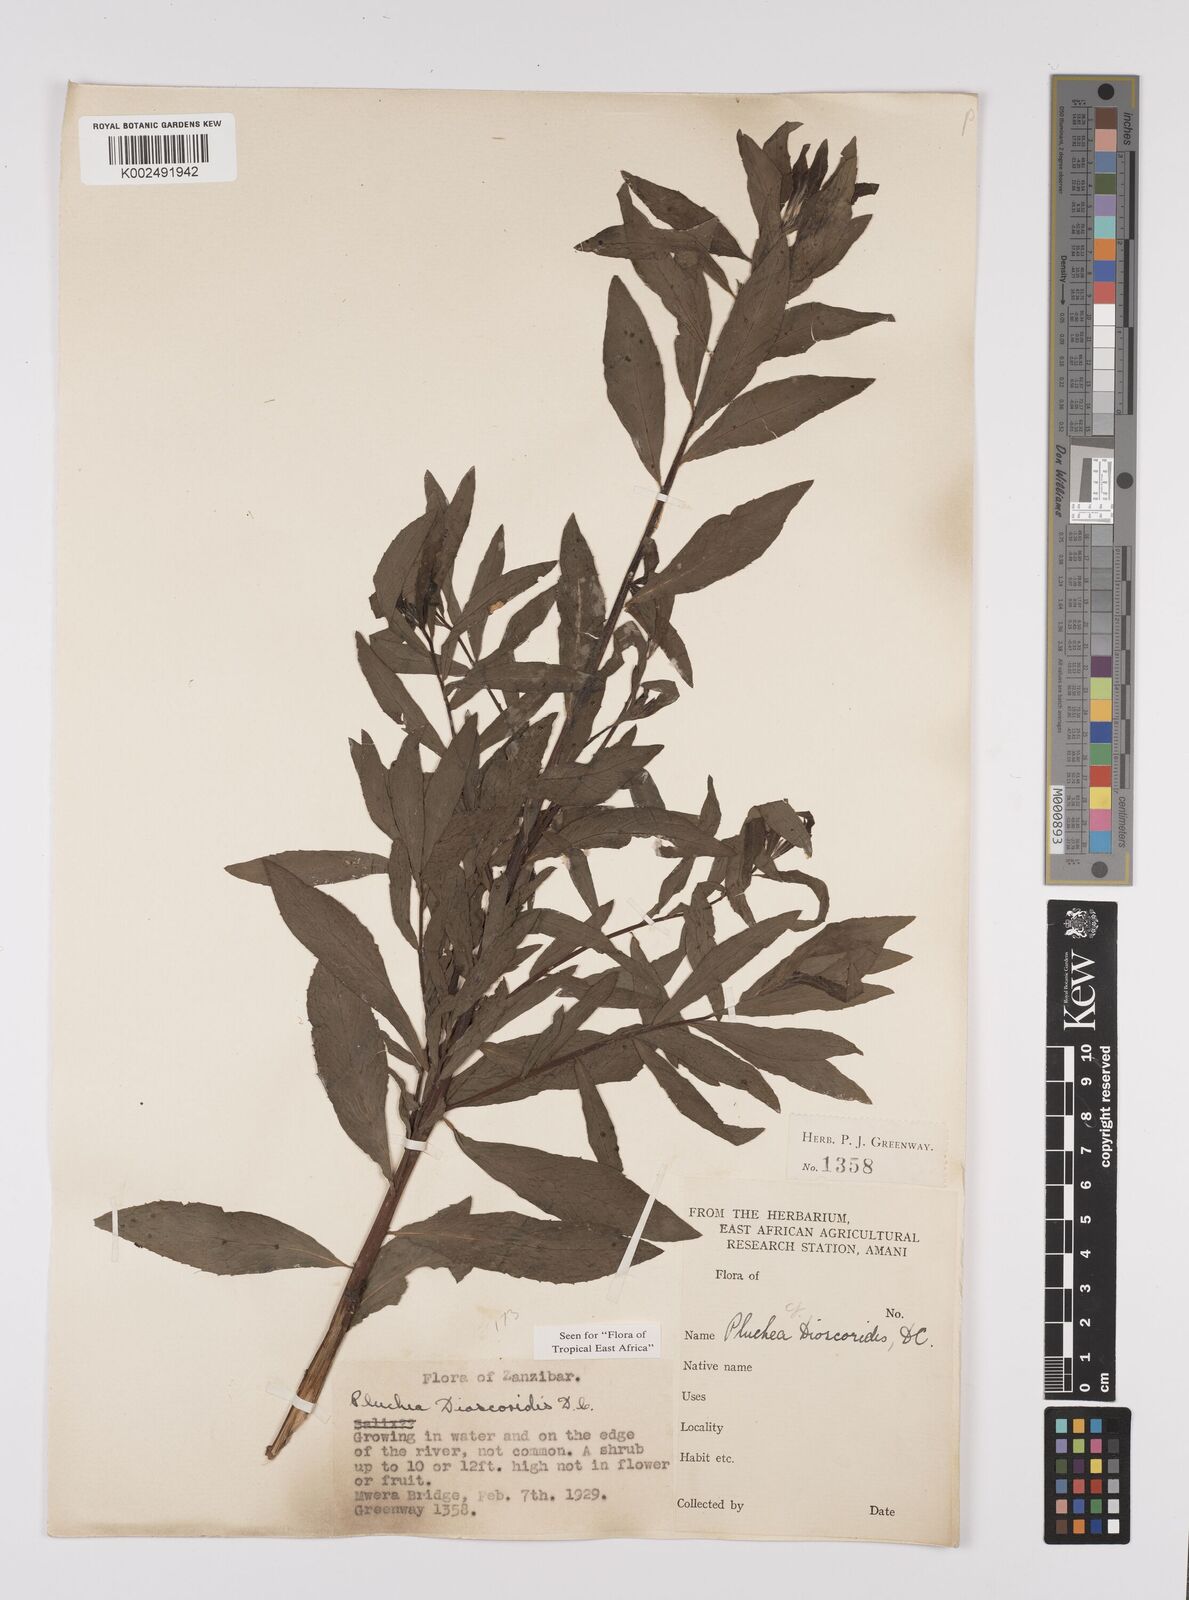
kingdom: Plantae
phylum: Tracheophyta
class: Magnoliopsida
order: Asterales
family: Asteraceae
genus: Pluchea
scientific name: Pluchea dioscoridis
